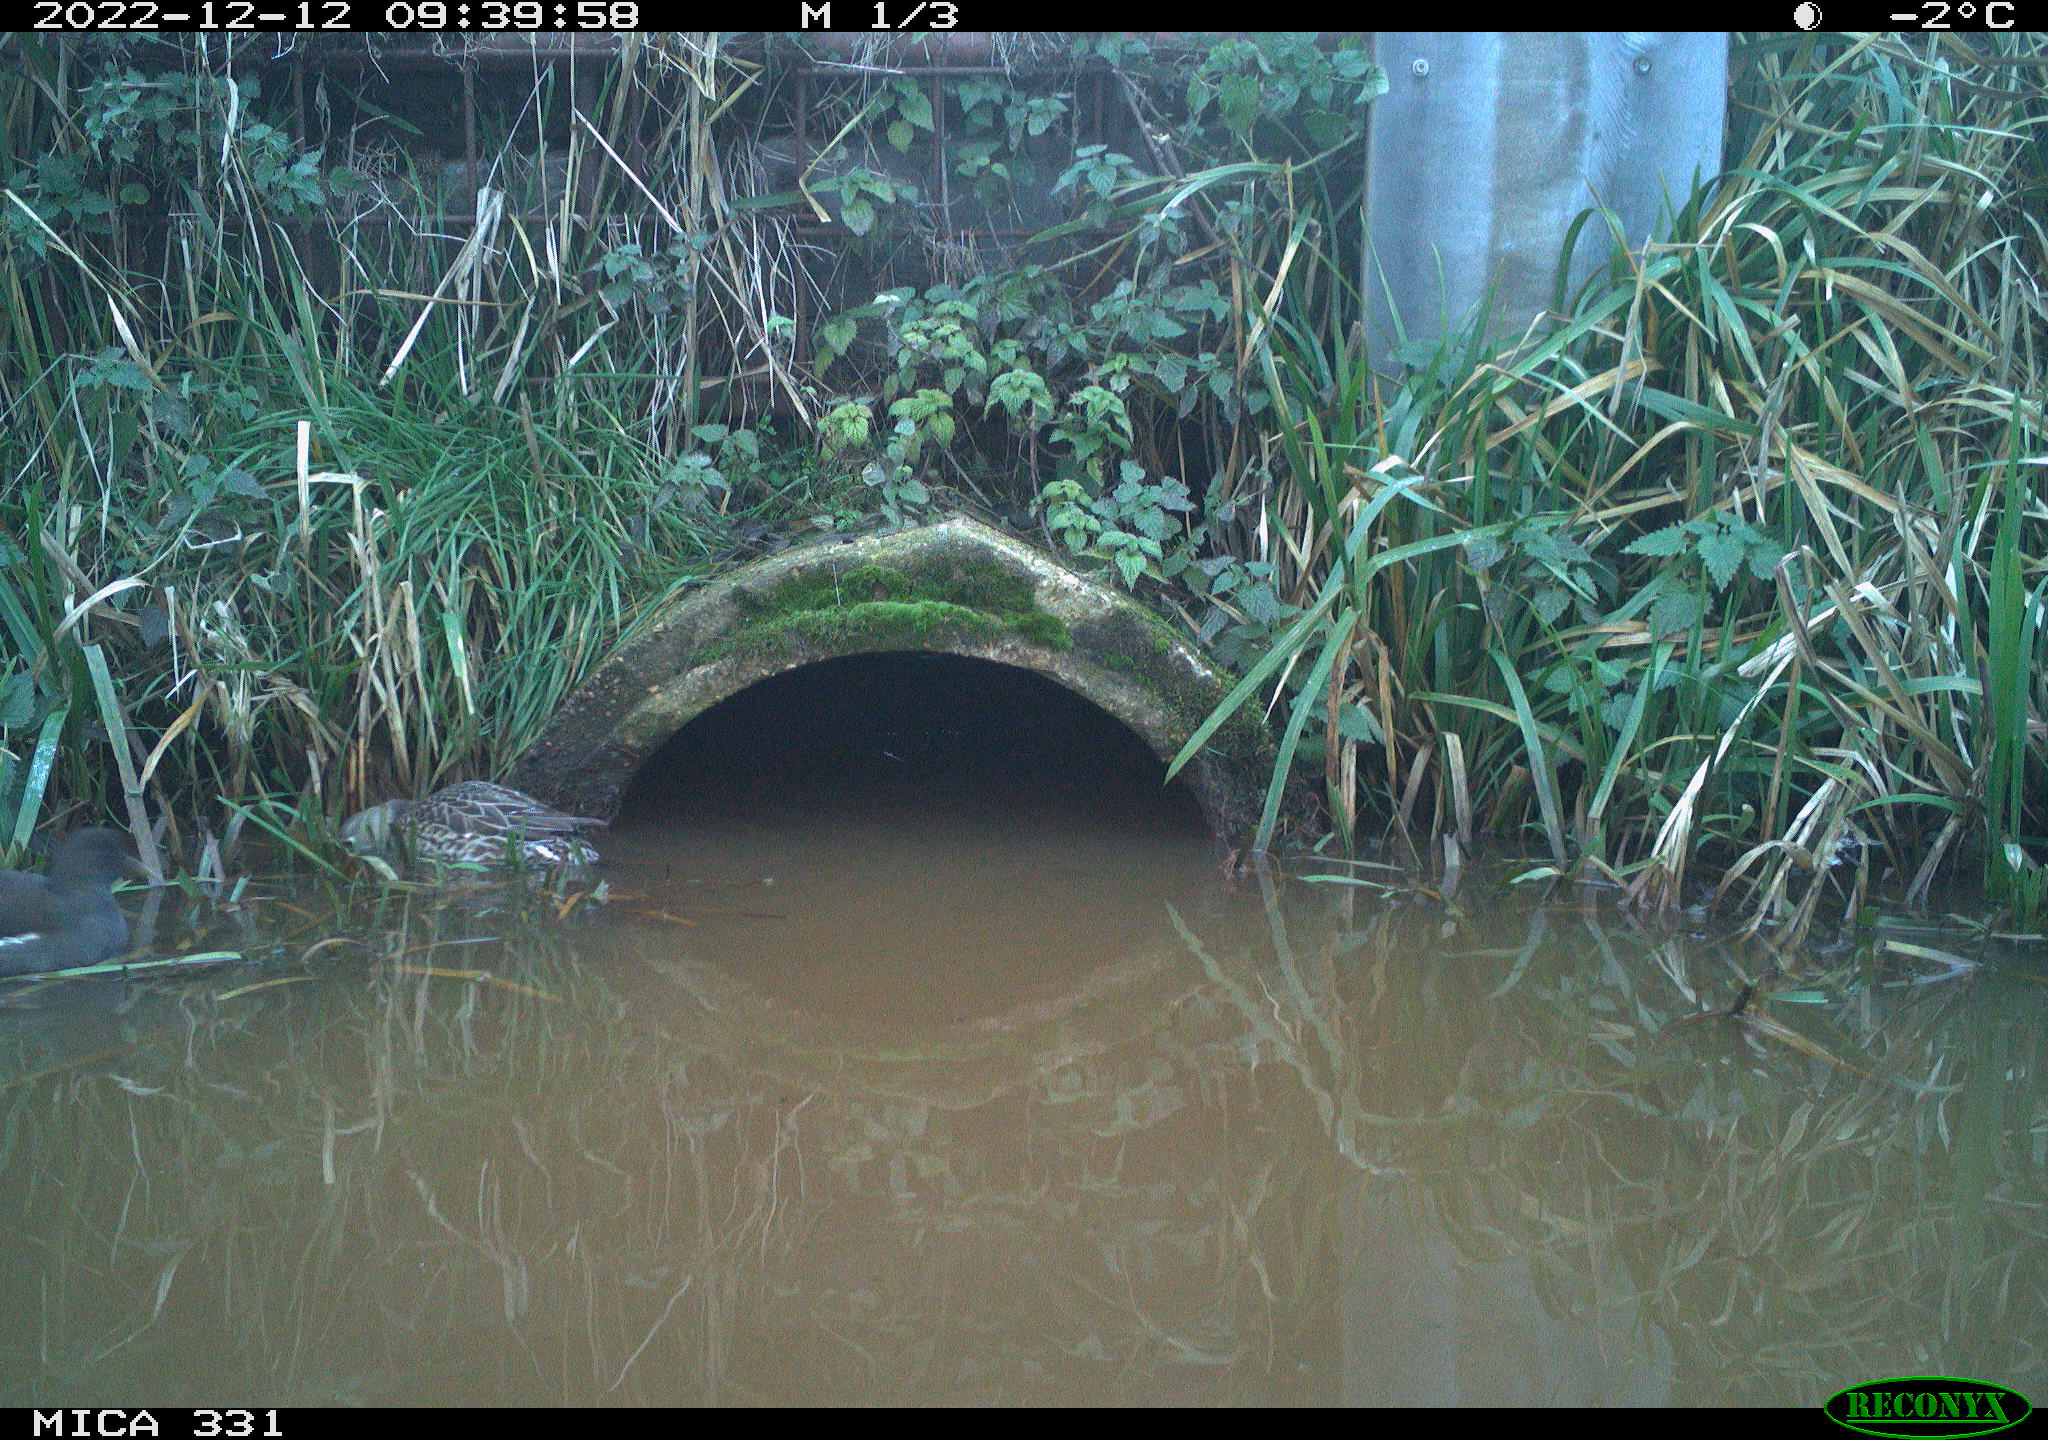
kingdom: Animalia
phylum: Chordata
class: Aves
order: Anseriformes
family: Anatidae
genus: Anas
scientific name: Anas
